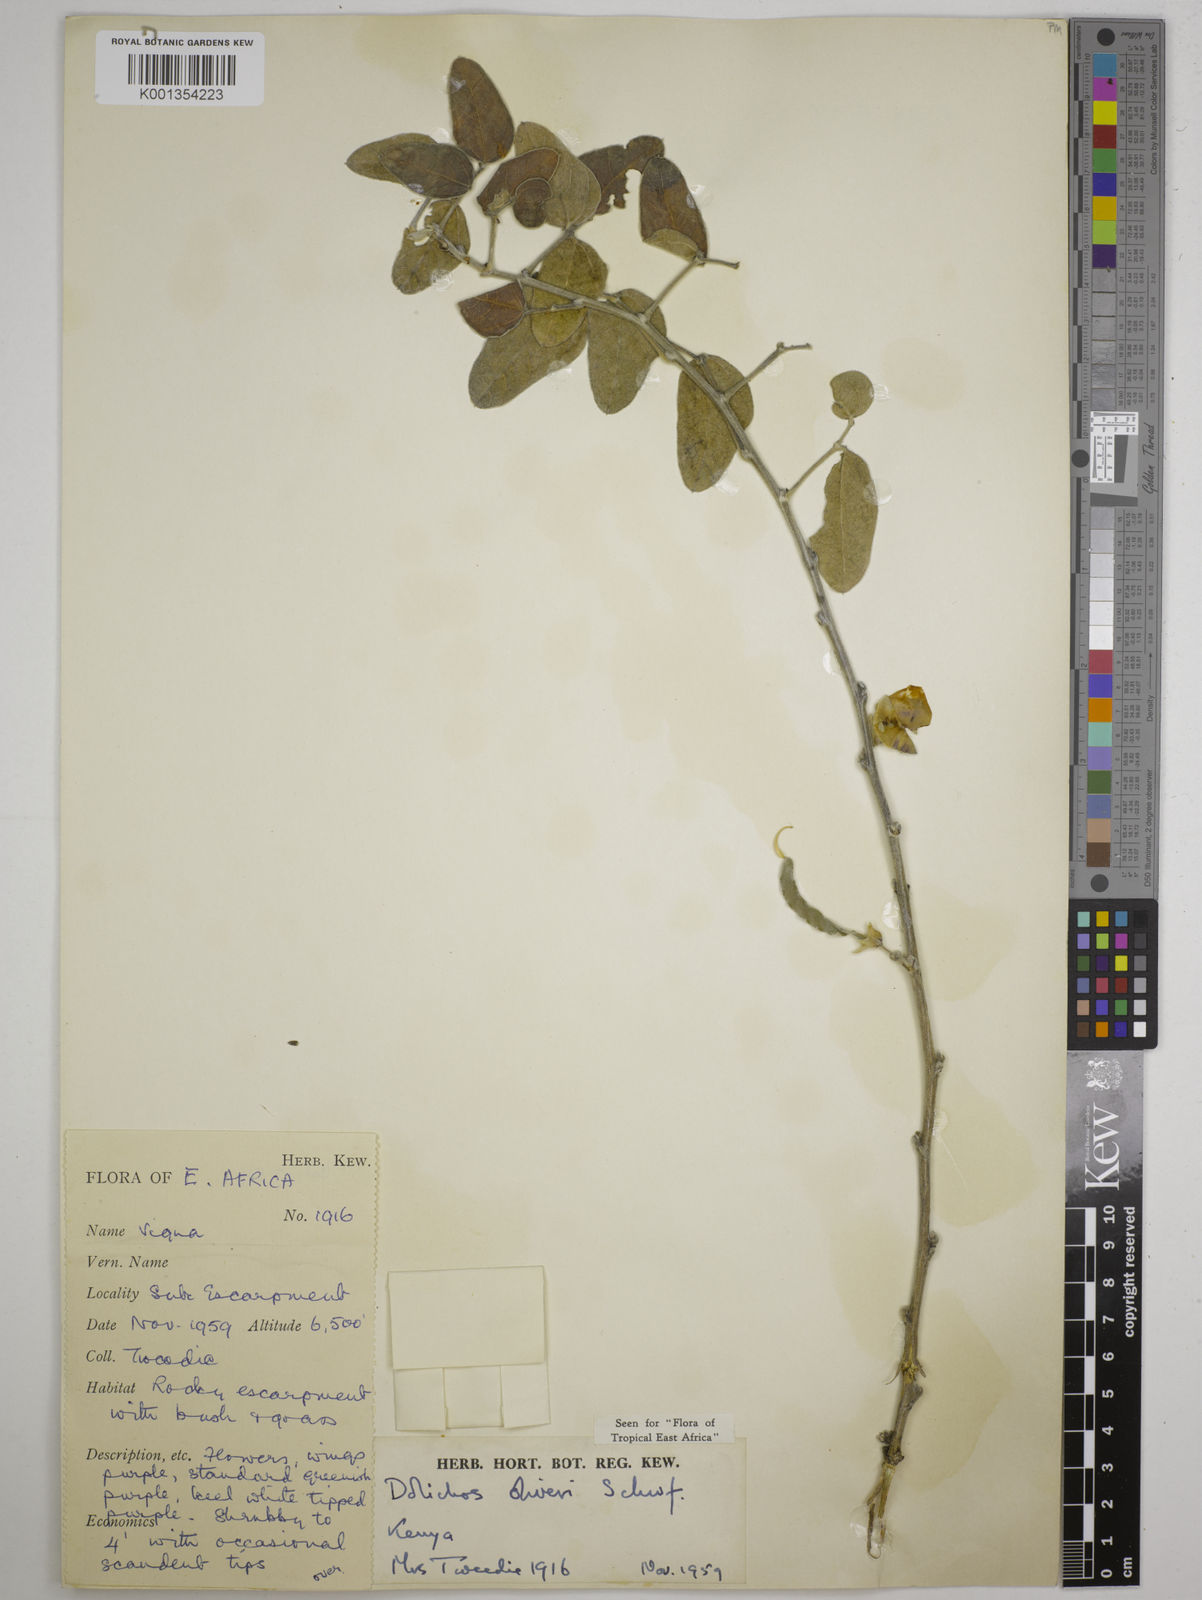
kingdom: Plantae
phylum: Tracheophyta
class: Magnoliopsida
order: Fabales
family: Fabaceae
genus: Dolichos
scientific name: Dolichos oliveri
